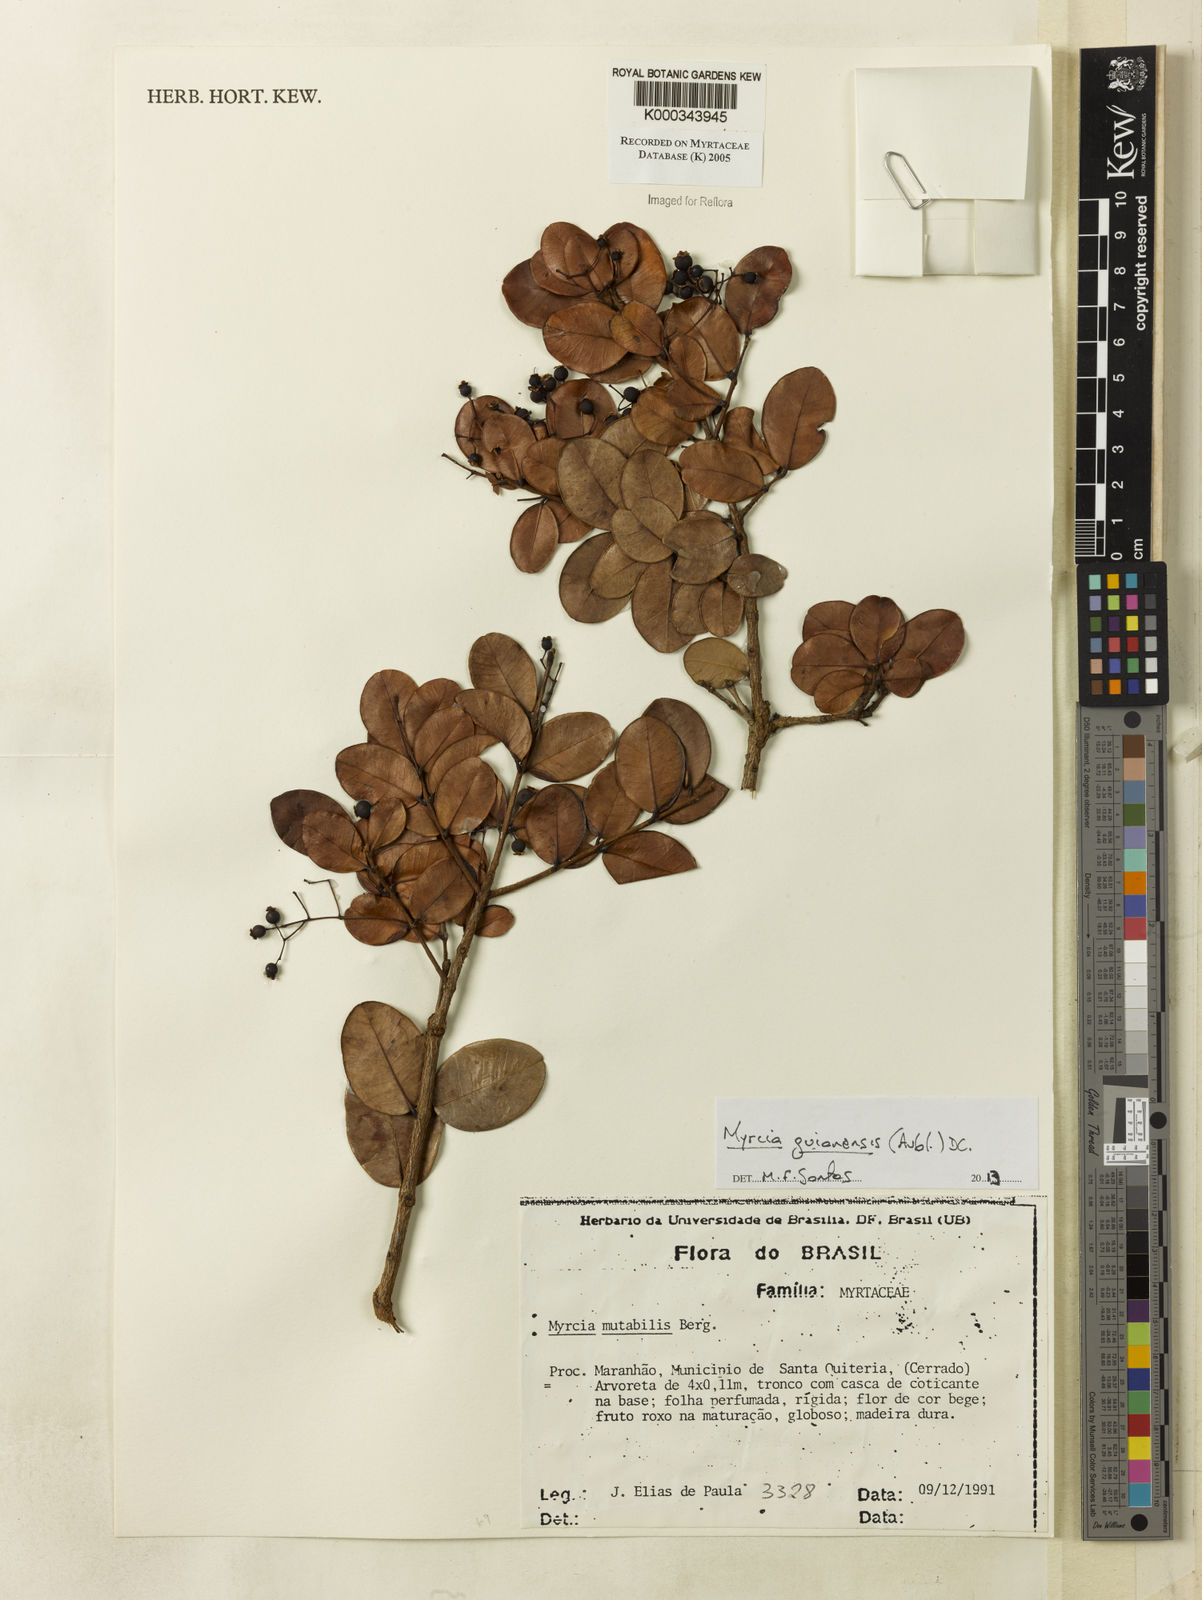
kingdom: Plantae
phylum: Tracheophyta
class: Magnoliopsida
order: Myrtales
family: Myrtaceae
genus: Myrcia
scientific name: Myrcia mutabilis
